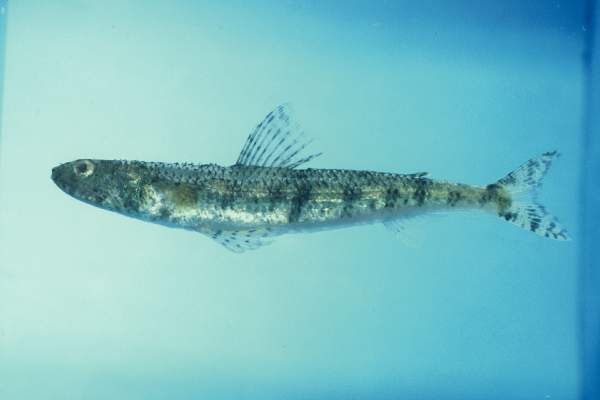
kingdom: Animalia
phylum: Chordata
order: Aulopiformes
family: Synodontidae
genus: Saurida
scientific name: Saurida gracilis
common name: Slender lizardfish
